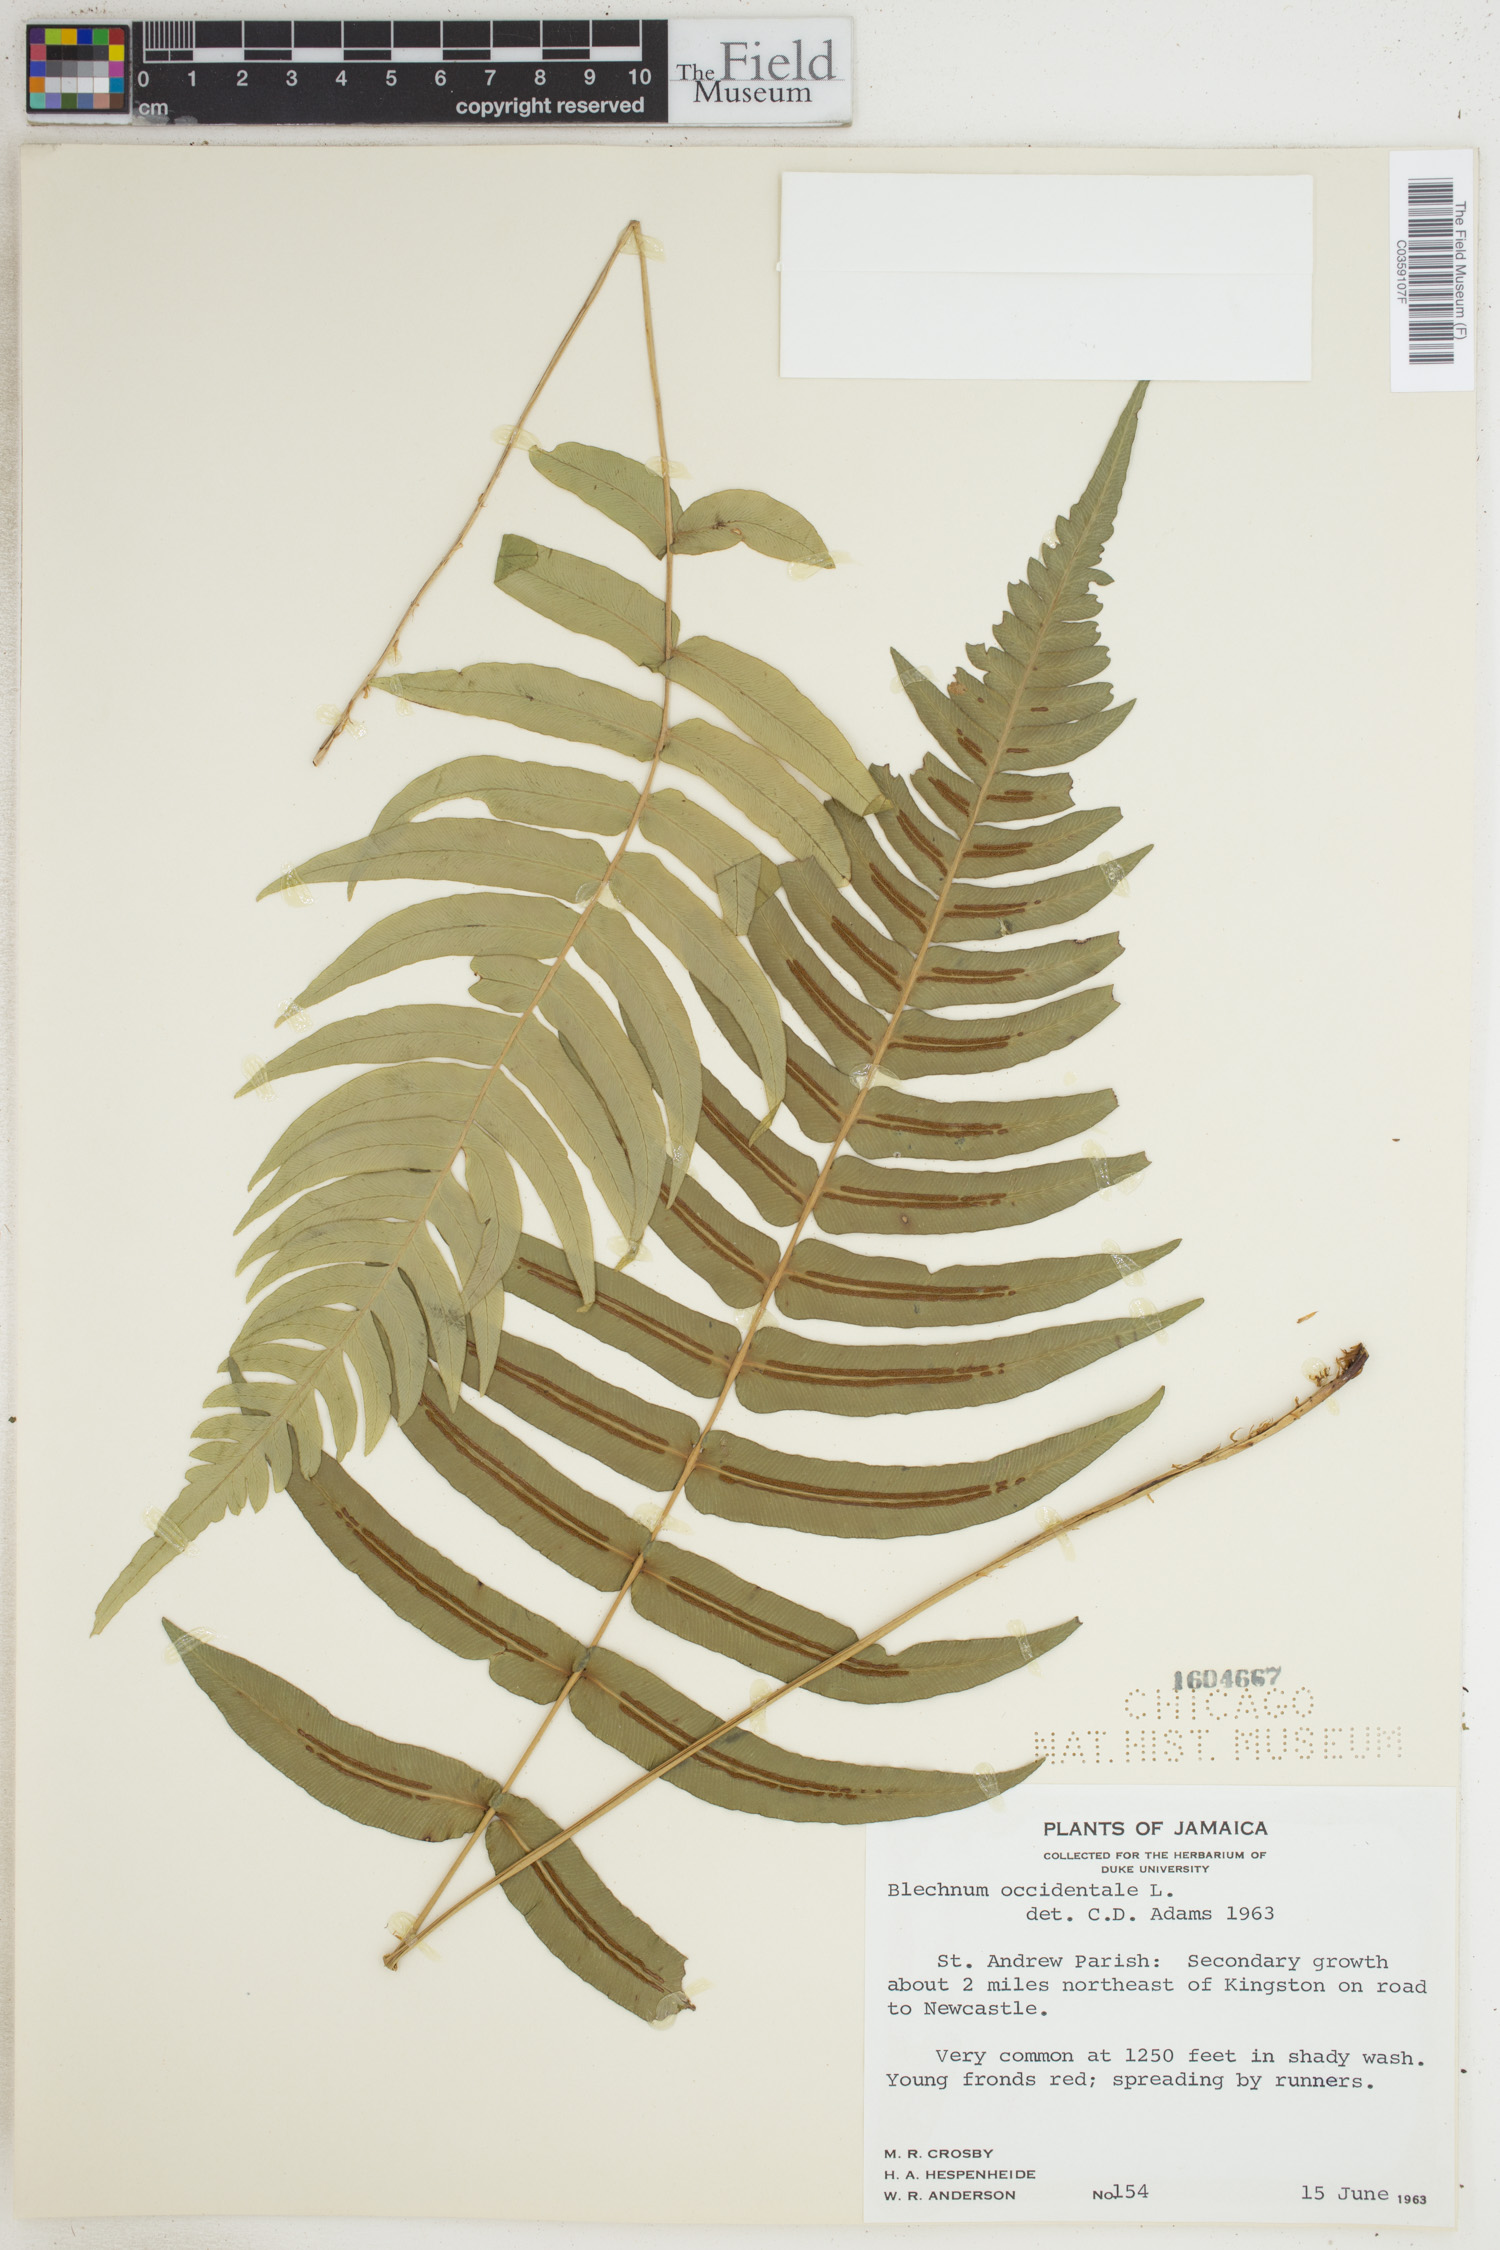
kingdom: Plantae
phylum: Tracheophyta
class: Polypodiopsida
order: Polypodiales
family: Blechnaceae
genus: Blechnum
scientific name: Blechnum occidentale
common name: Hammock fern
